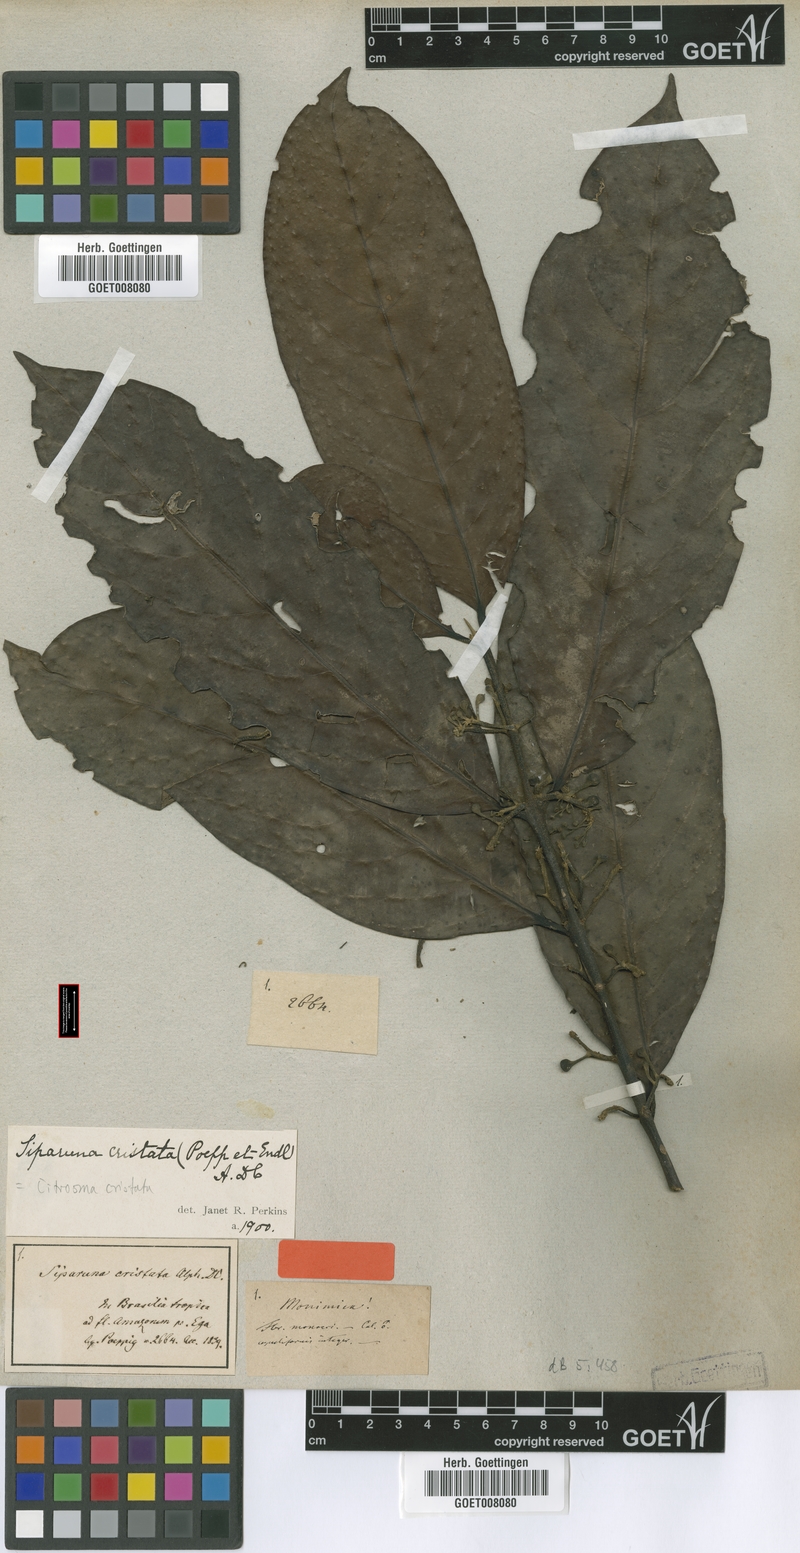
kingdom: Plantae
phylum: Tracheophyta
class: Magnoliopsida
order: Laurales
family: Siparunaceae
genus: Siparuna
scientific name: Siparuna cristata
